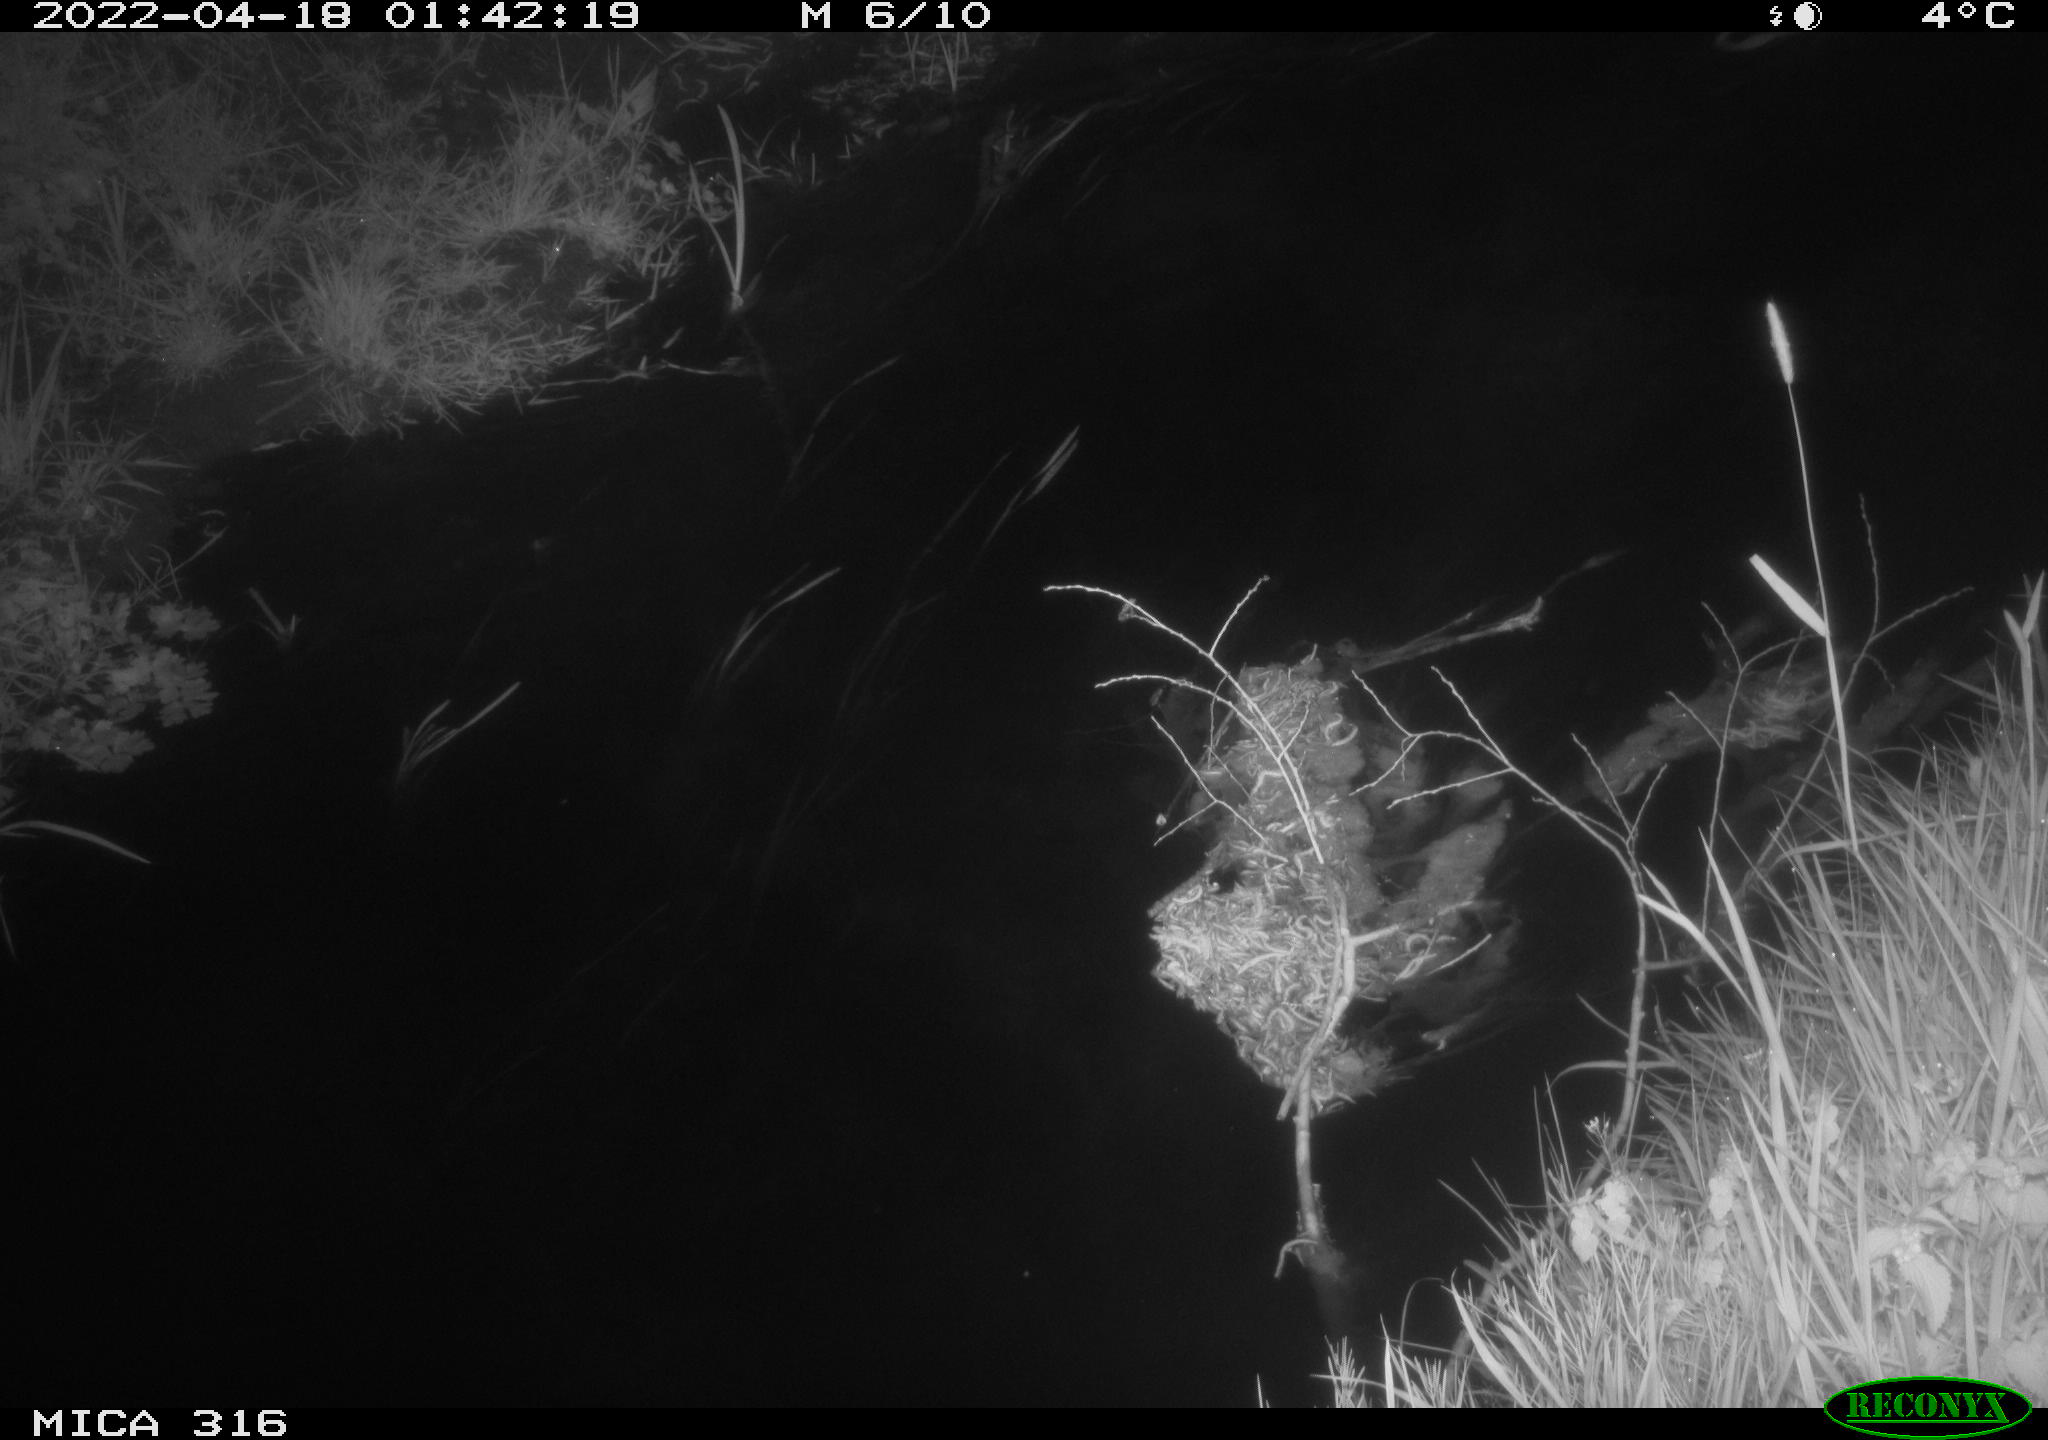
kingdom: Animalia
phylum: Chordata
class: Aves
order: Anseriformes
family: Anatidae
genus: Anas
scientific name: Anas platyrhynchos
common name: Mallard
